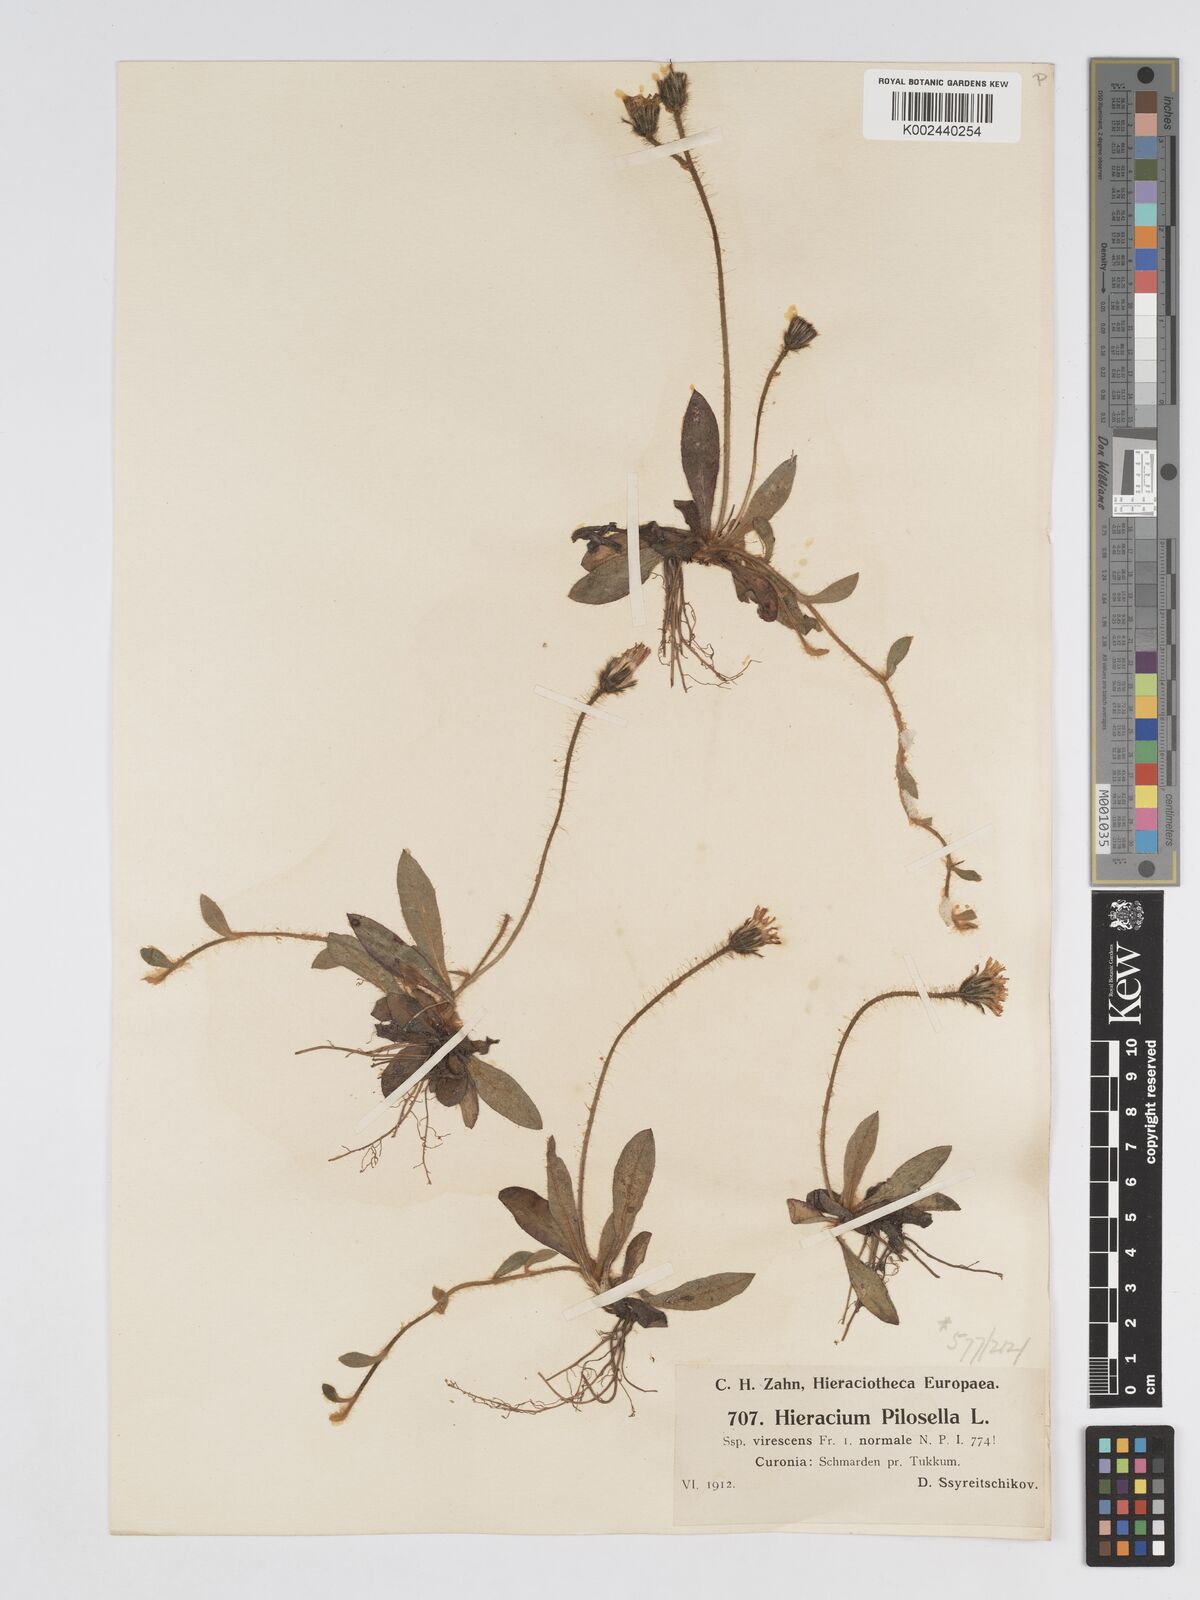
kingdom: Plantae
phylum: Tracheophyta
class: Magnoliopsida
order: Asterales
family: Asteraceae
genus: Pilosella
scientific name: Pilosella officinarum
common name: Mouse-ear hawkweed
